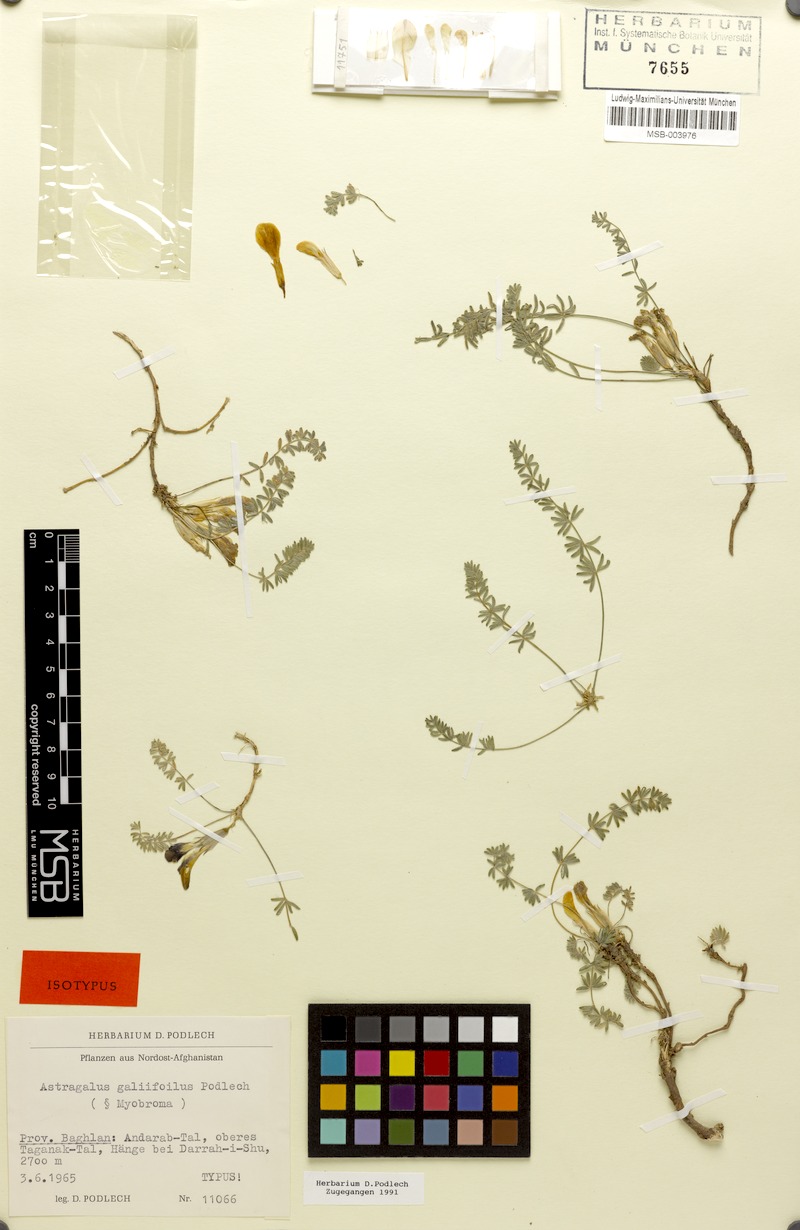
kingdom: Plantae
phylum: Tracheophyta
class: Magnoliopsida
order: Fabales
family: Fabaceae
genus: Astragalus
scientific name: Astragalus galiifolius
